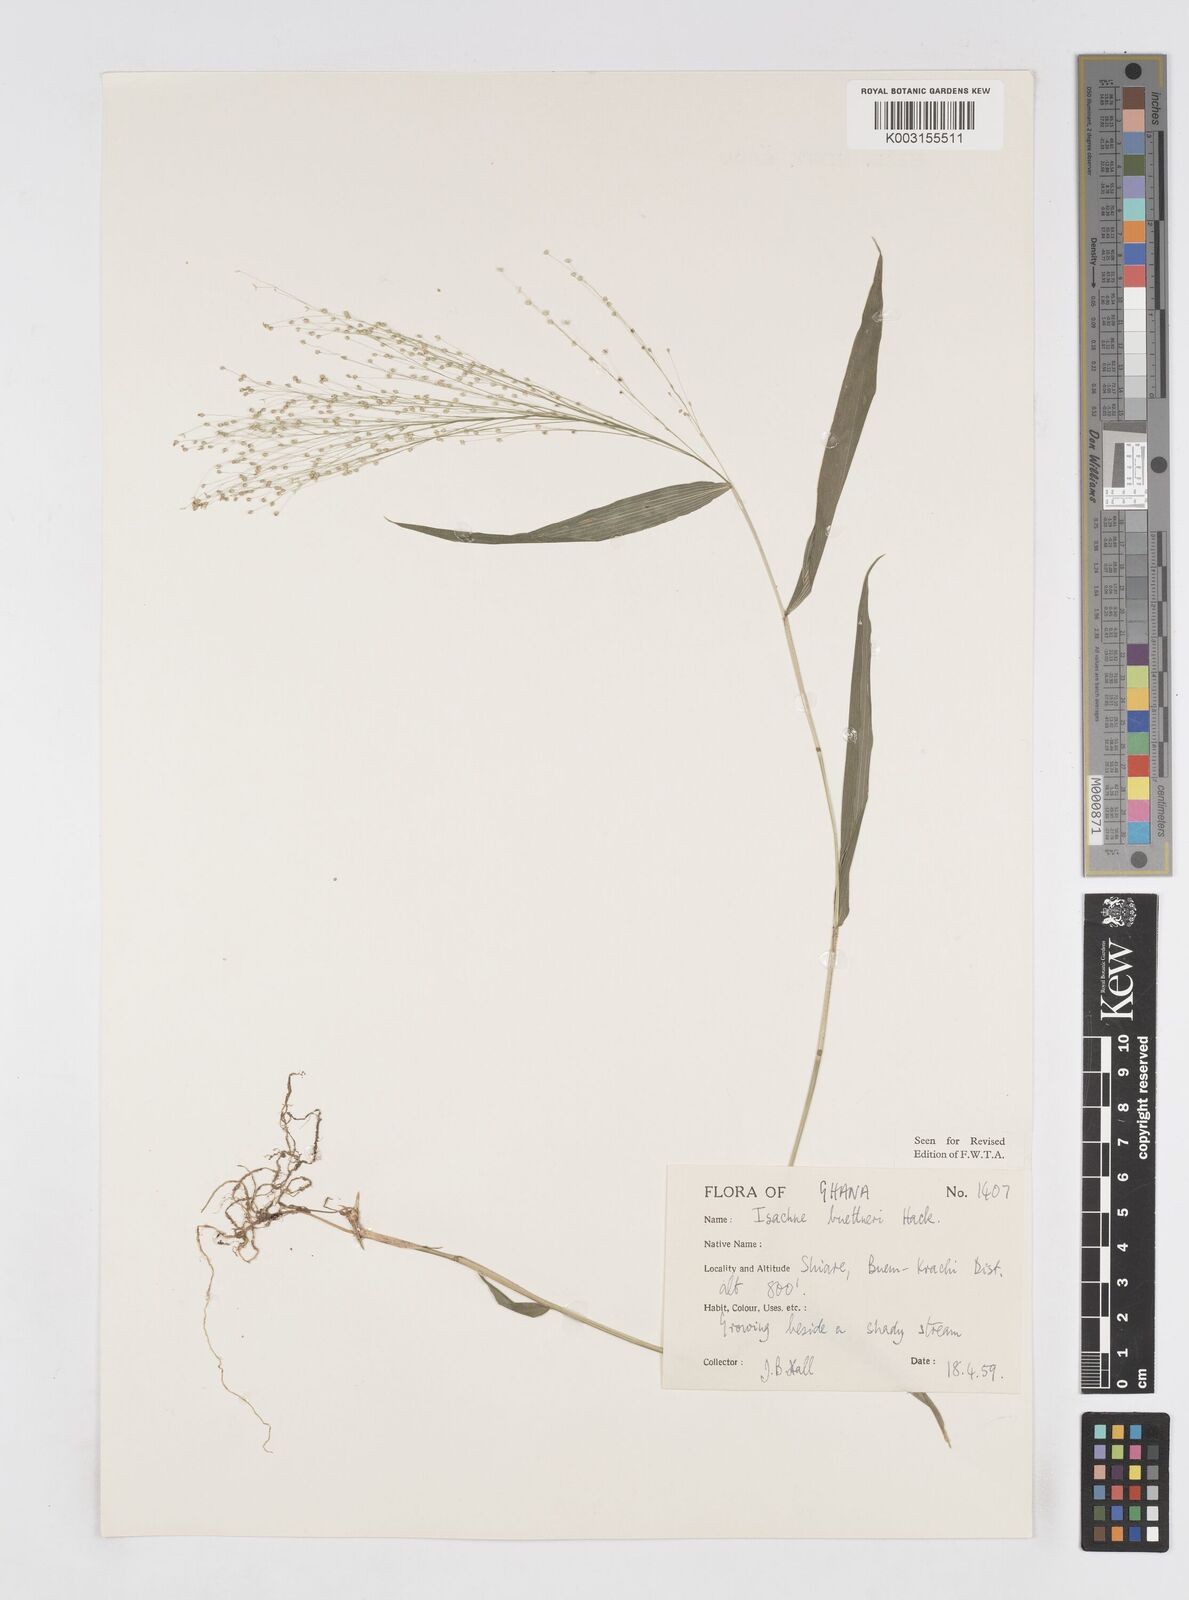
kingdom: Plantae
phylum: Tracheophyta
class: Liliopsida
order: Poales
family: Poaceae
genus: Isachne
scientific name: Isachne albens
